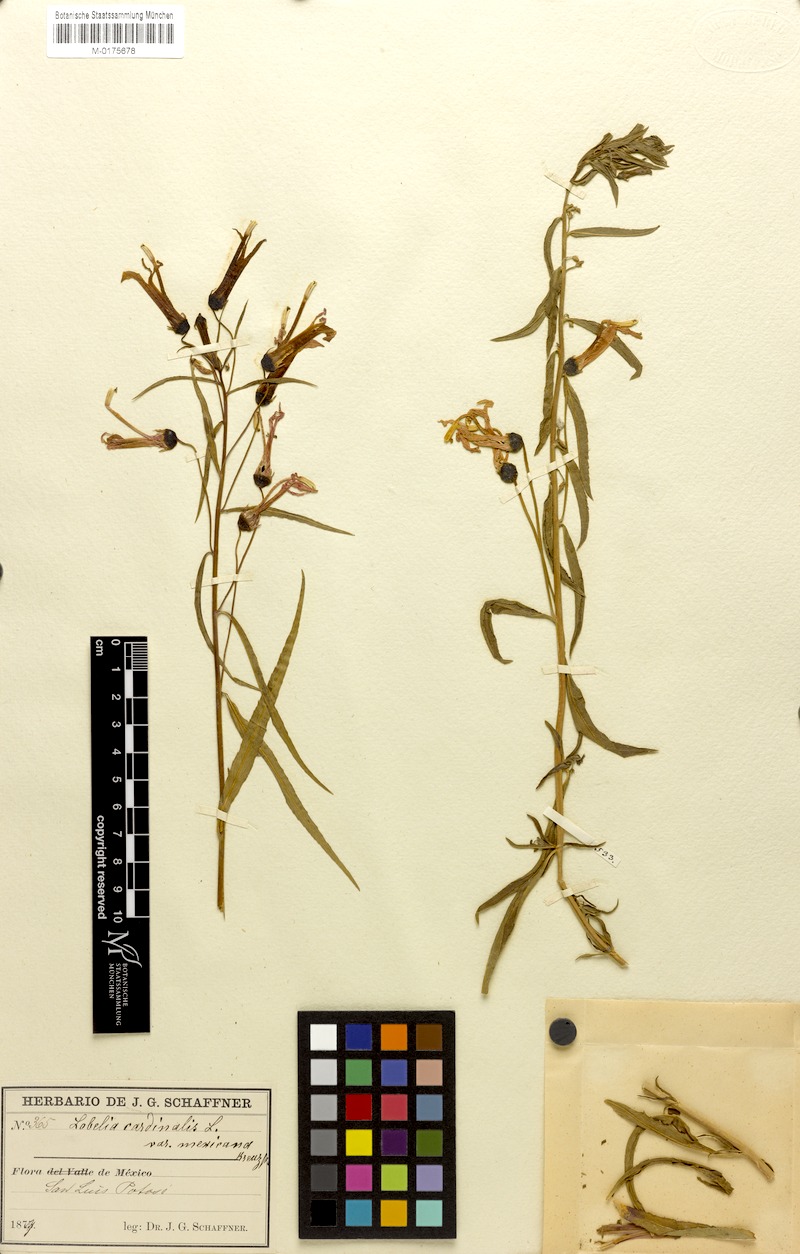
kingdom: Plantae
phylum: Tracheophyta
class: Magnoliopsida
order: Asterales
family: Campanulaceae
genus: Lobelia
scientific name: Lobelia cardinalis
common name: Cardinal flower
